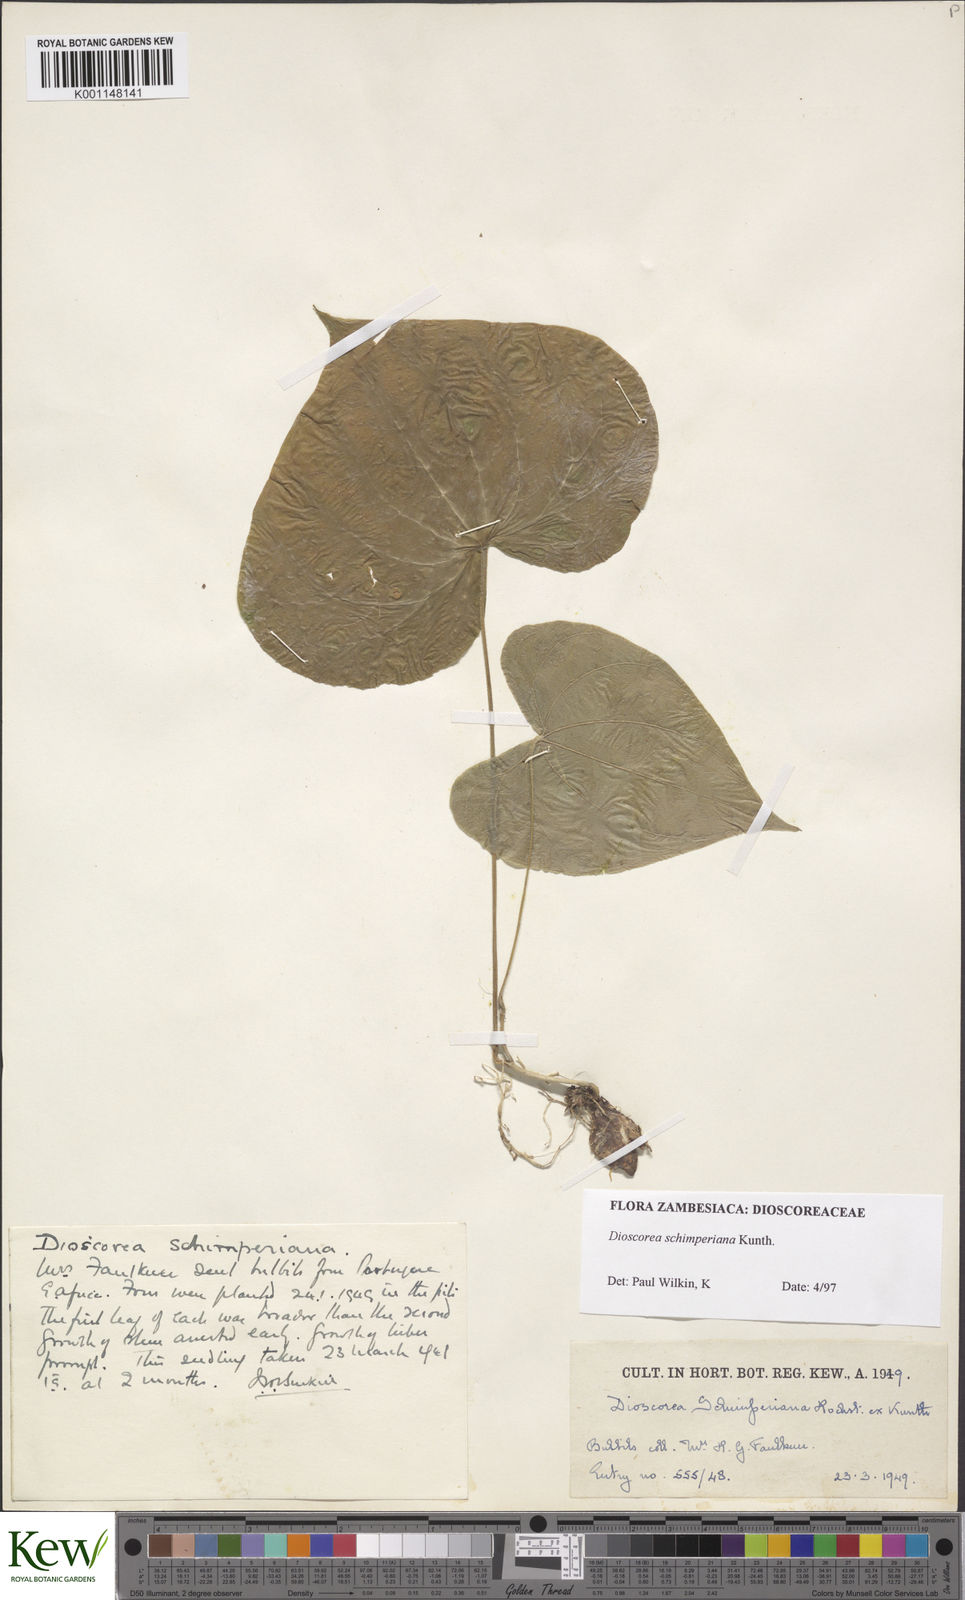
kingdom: Plantae
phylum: Tracheophyta
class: Liliopsida
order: Dioscoreales
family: Dioscoreaceae
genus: Dioscorea
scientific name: Dioscorea schimperiana
